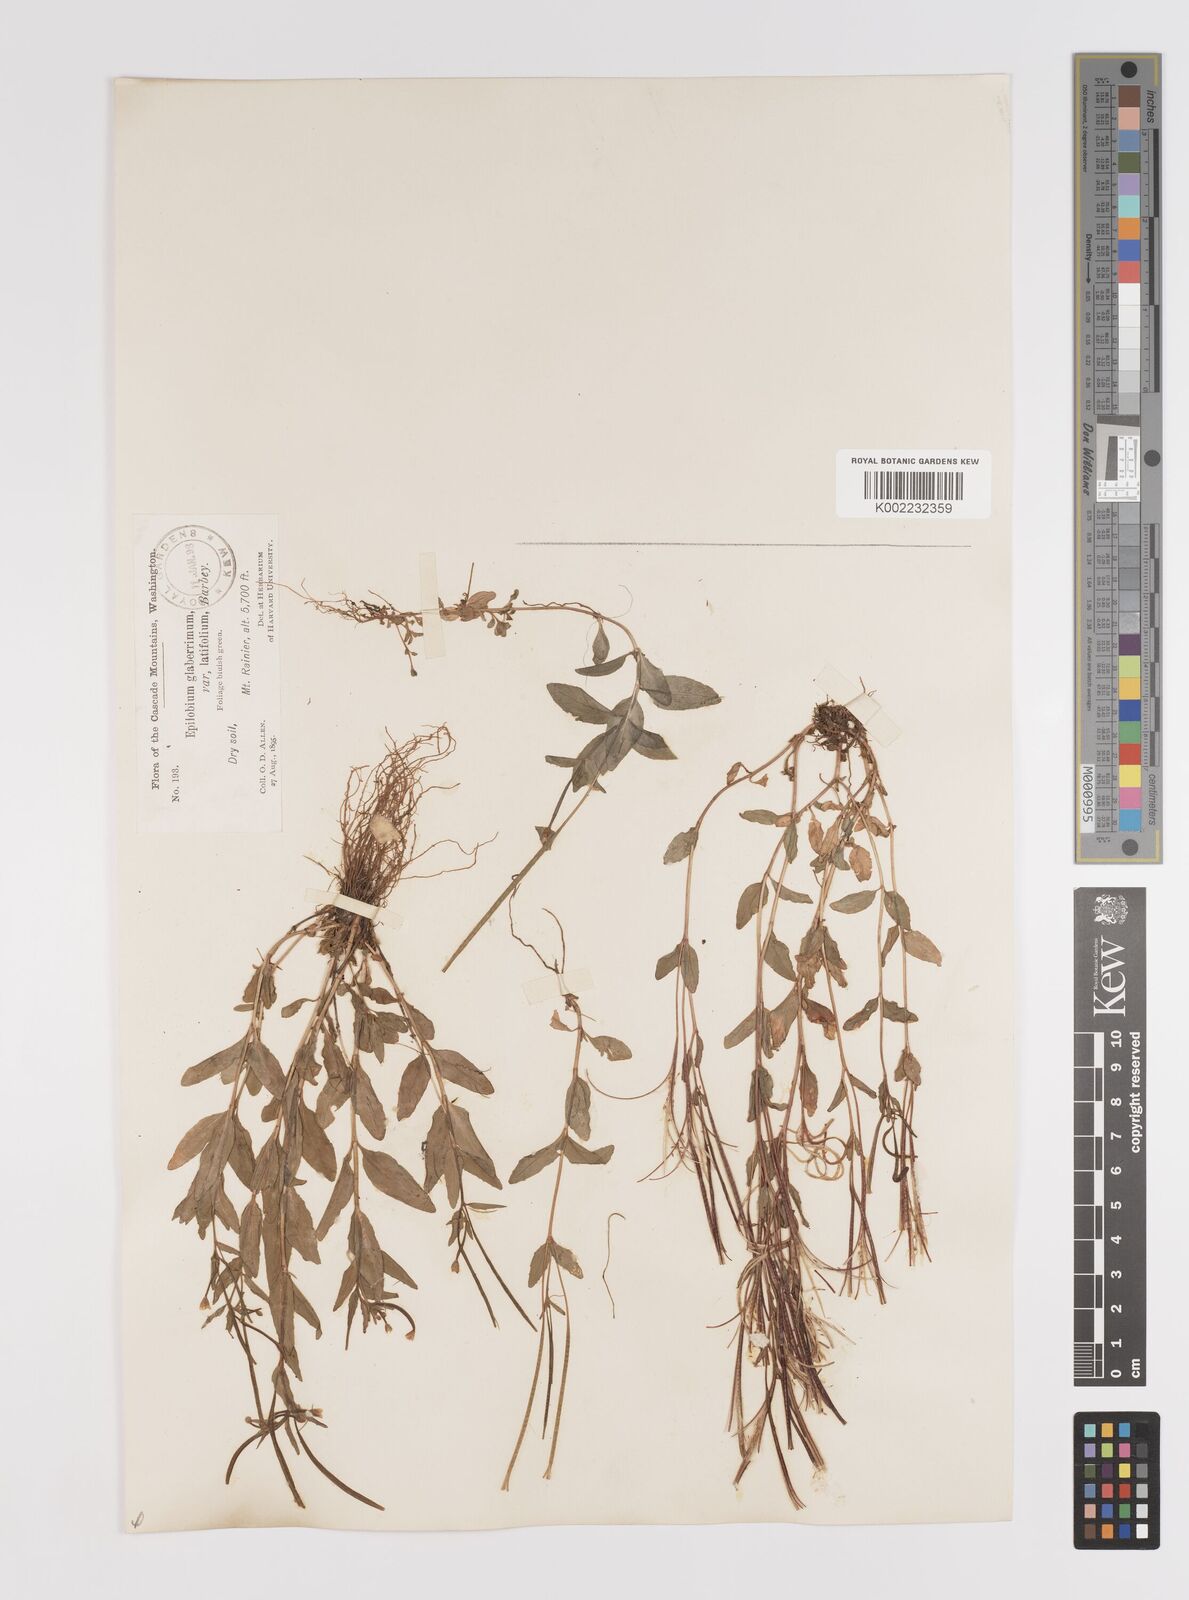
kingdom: Plantae
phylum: Tracheophyta
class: Magnoliopsida
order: Myrtales
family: Onagraceae
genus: Epilobium
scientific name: Epilobium glaberrimum
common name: Glaucous willowherb
